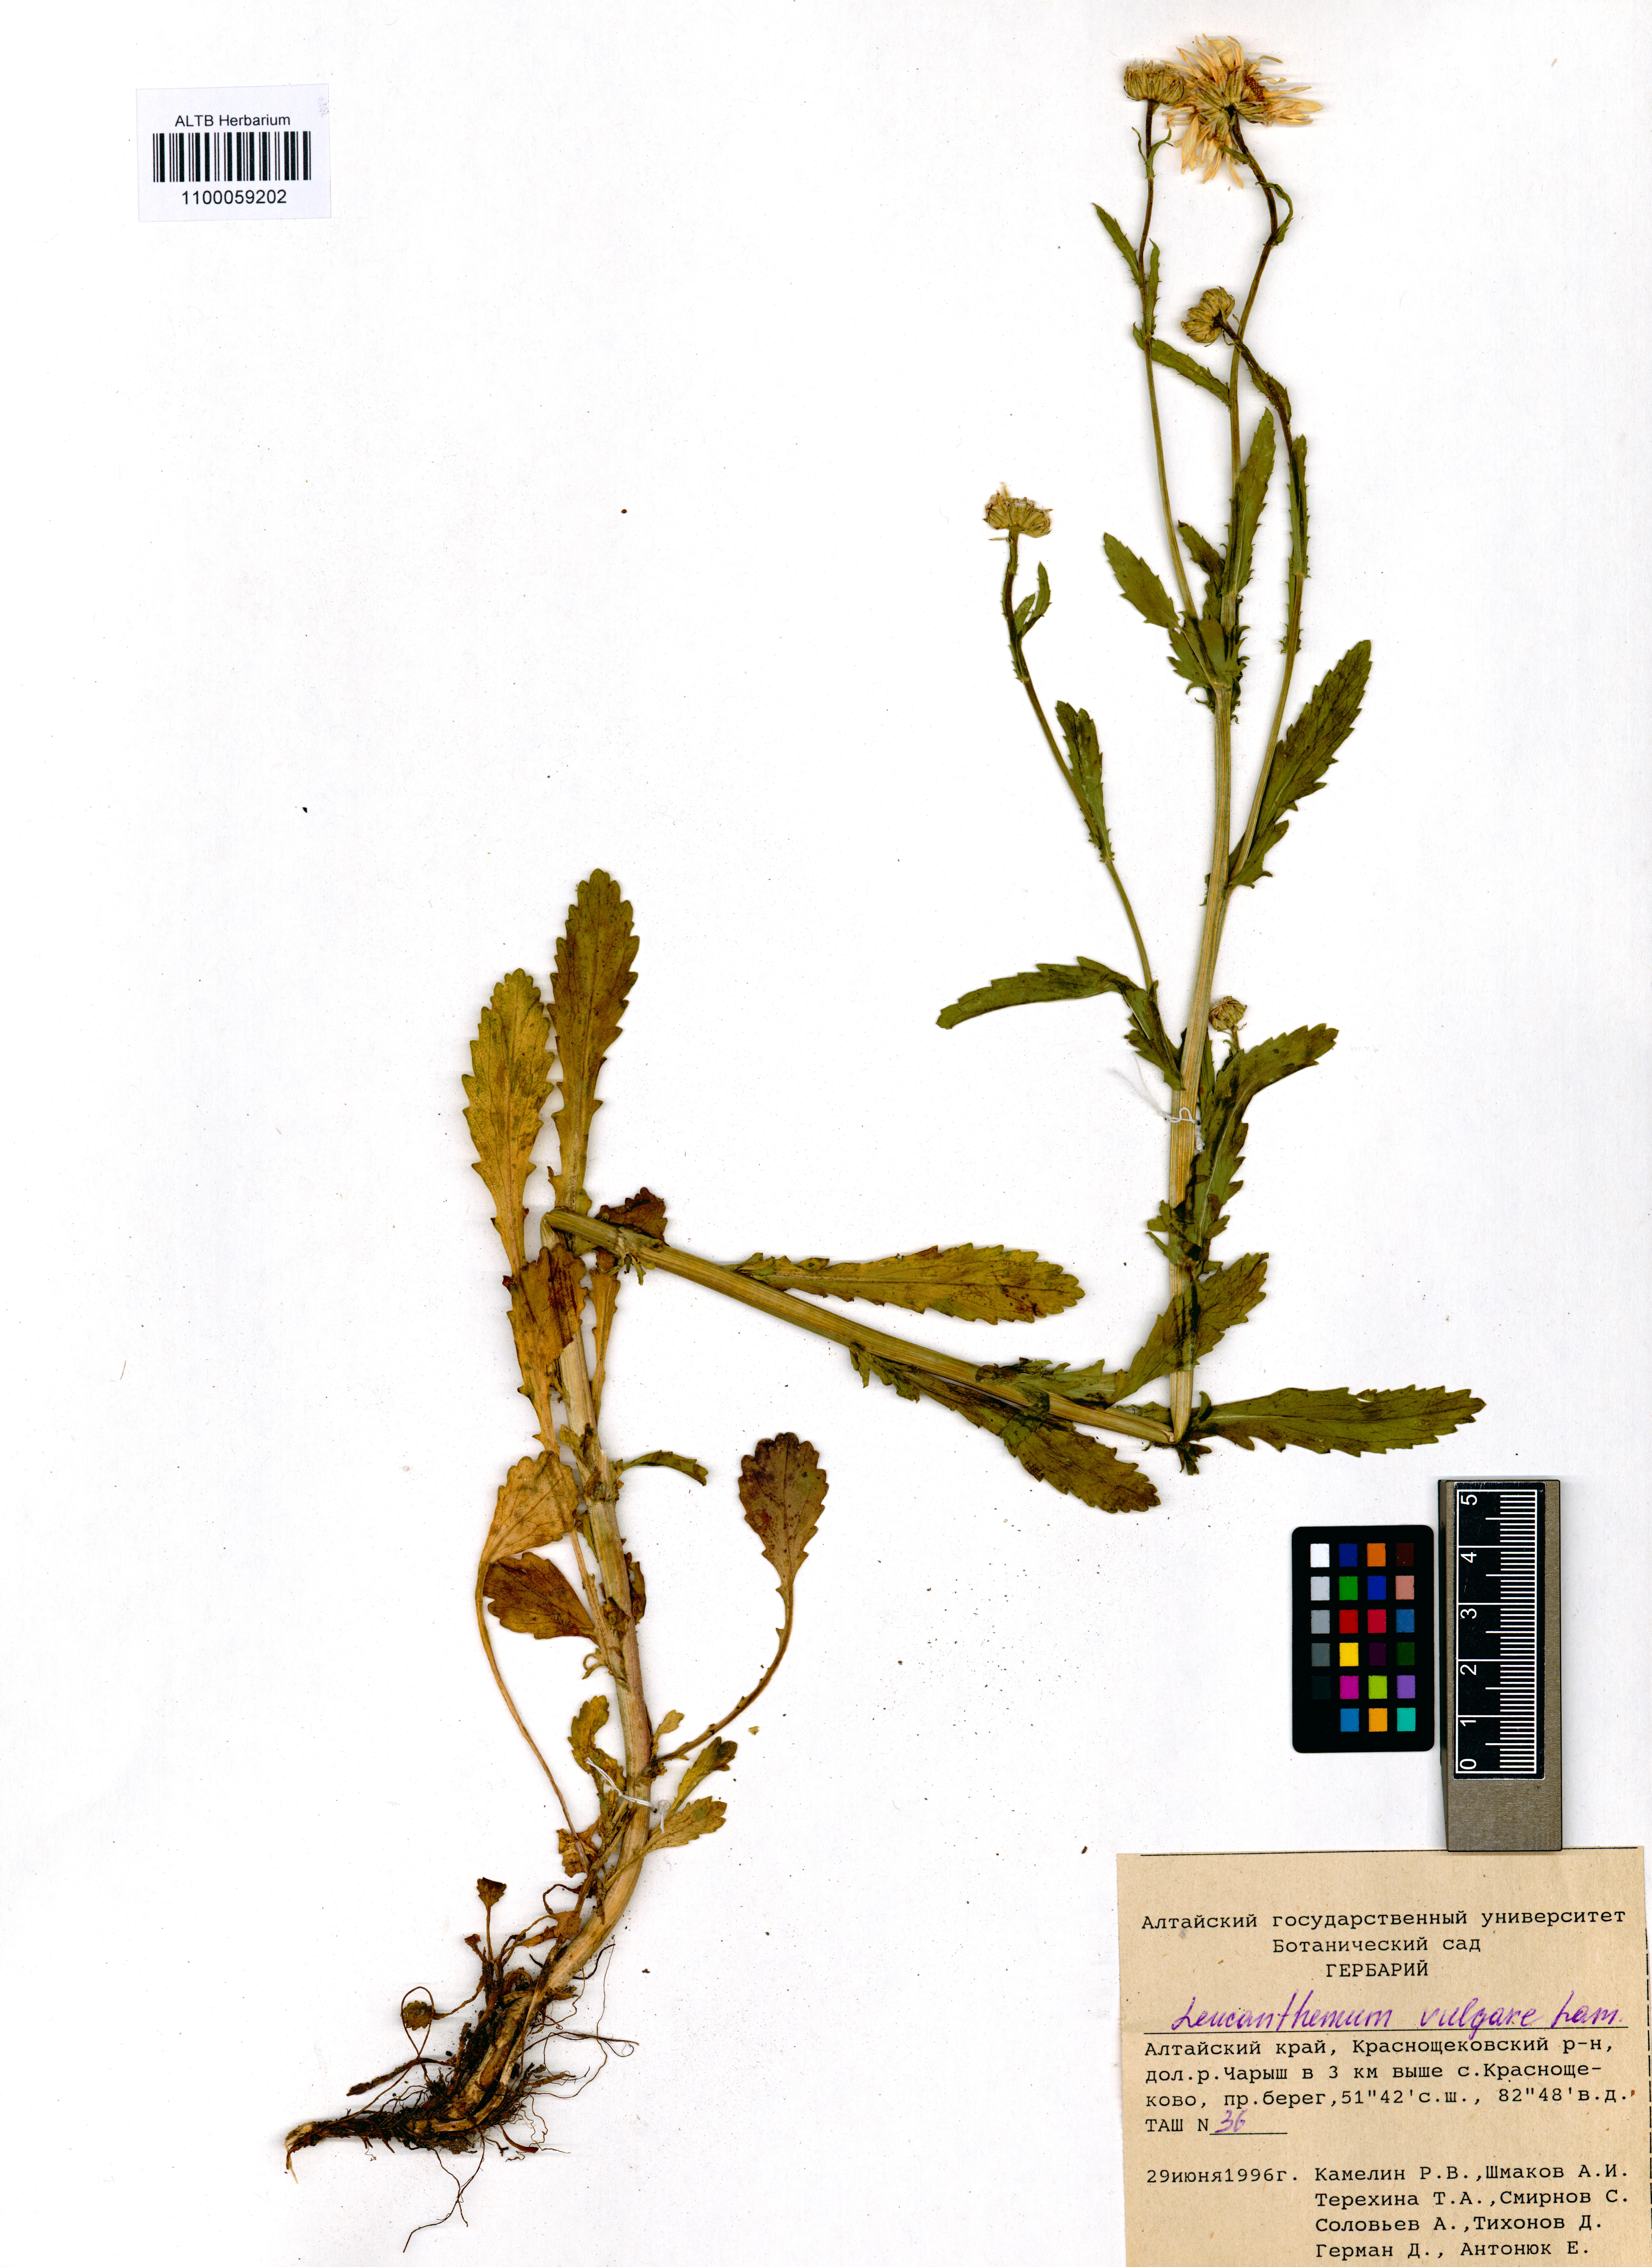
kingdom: Plantae
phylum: Tracheophyta
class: Magnoliopsida
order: Asterales
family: Asteraceae
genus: Leucanthemum
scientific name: Leucanthemum vulgare
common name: Oxeye daisy
